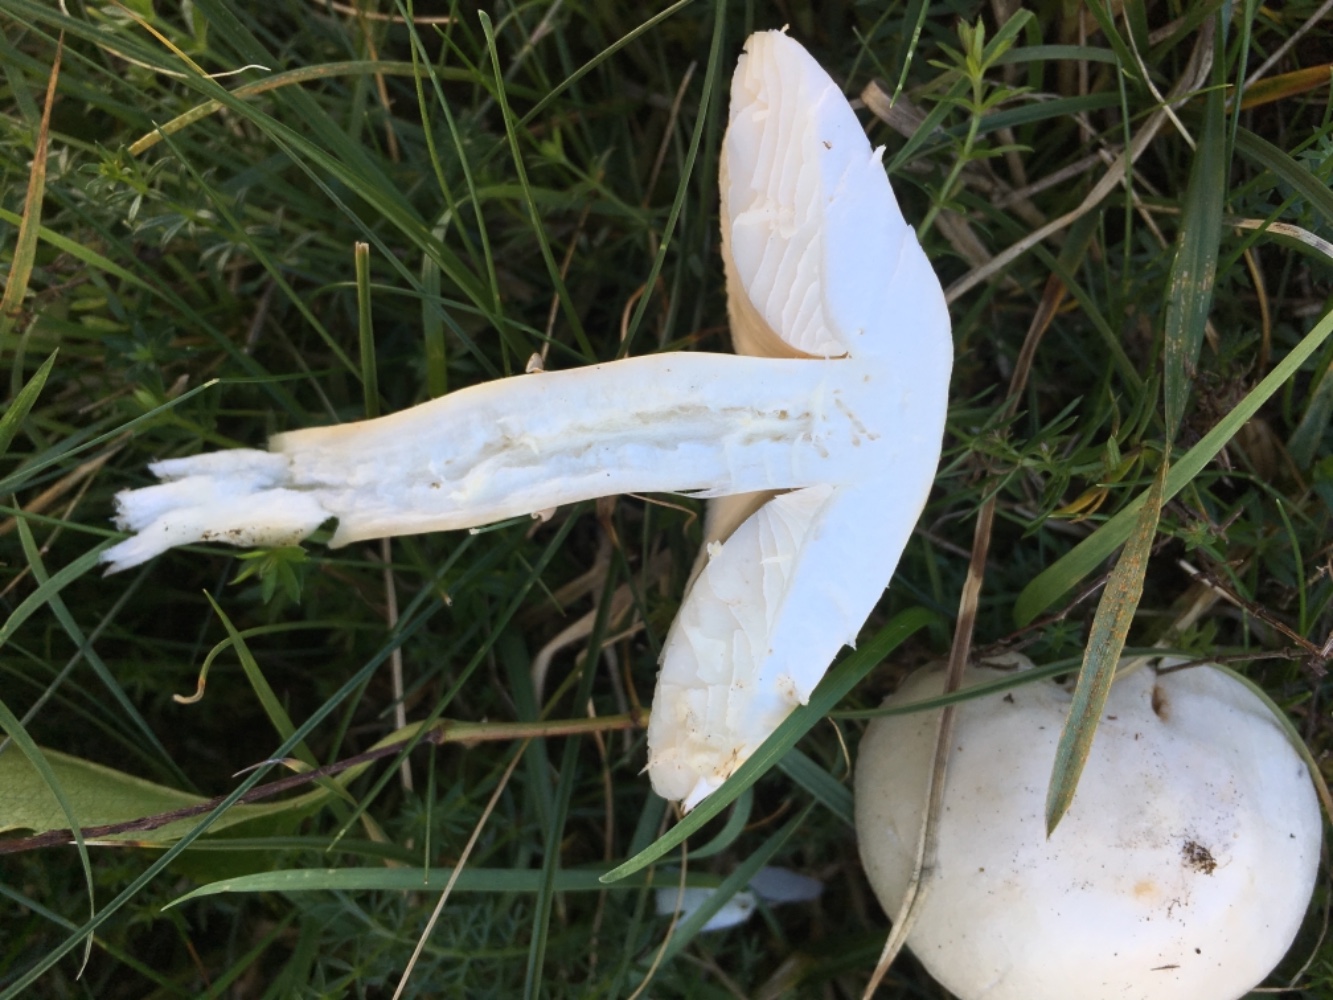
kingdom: Fungi
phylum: Basidiomycota
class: Agaricomycetes
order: Agaricales
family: Agaricaceae
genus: Leucoagaricus
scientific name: Leucoagaricus leucothites
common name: rosabladet silkehat
